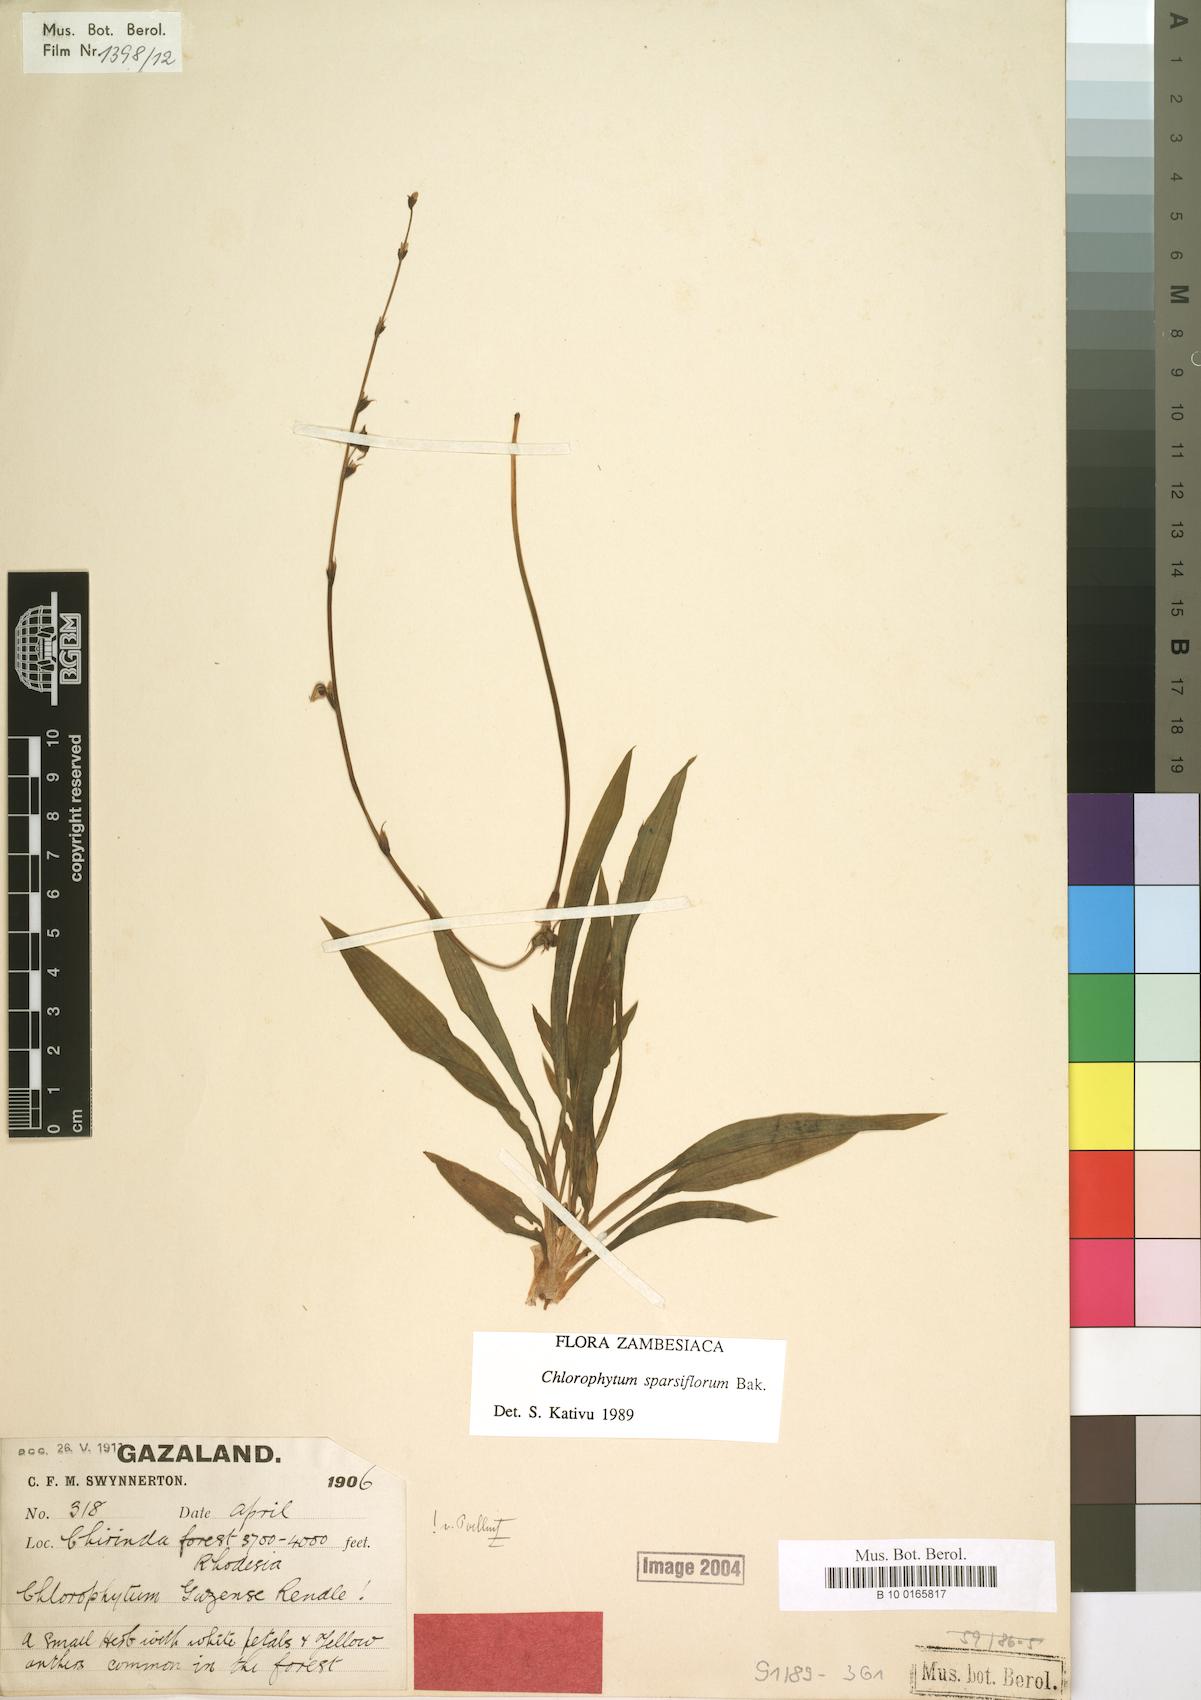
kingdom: Plantae
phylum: Tracheophyta
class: Liliopsida
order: Asparagales
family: Asparagaceae
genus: Chlorophytum
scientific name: Chlorophytum sparsiflorum
